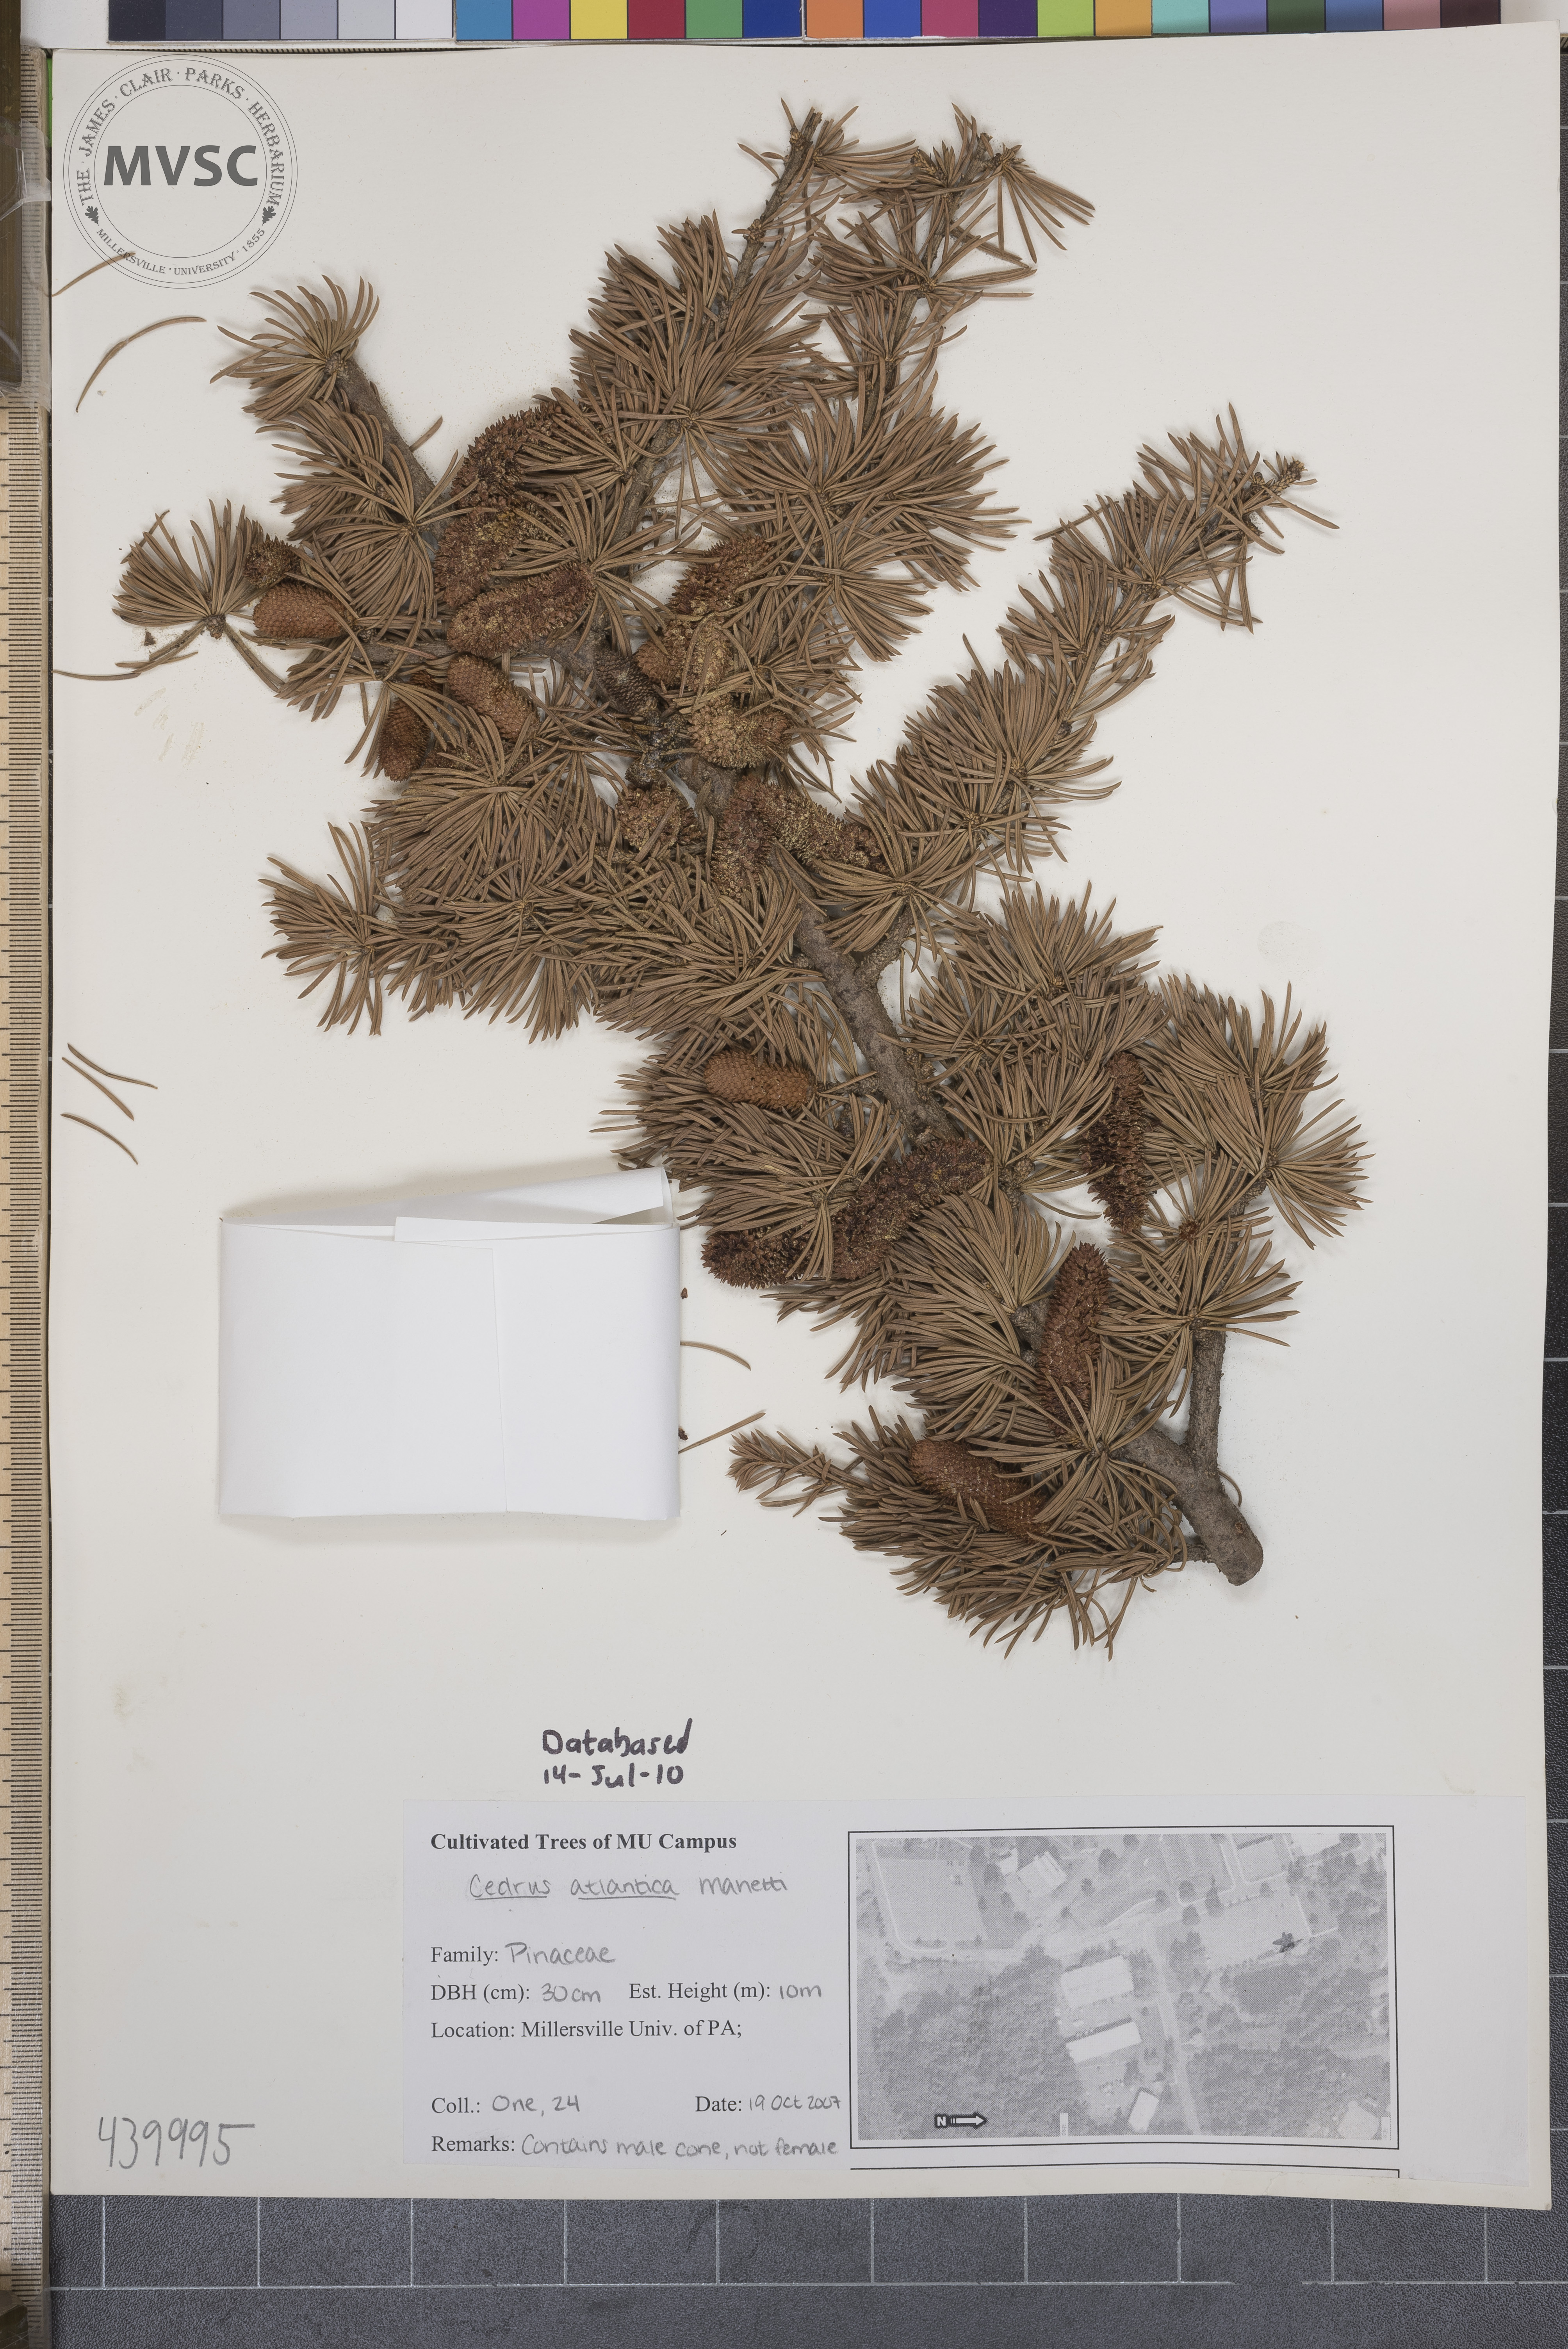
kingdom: Plantae
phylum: Tracheophyta
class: Pinopsida
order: Pinales
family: Pinaceae
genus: Cedrus
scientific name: Cedrus atlantica
